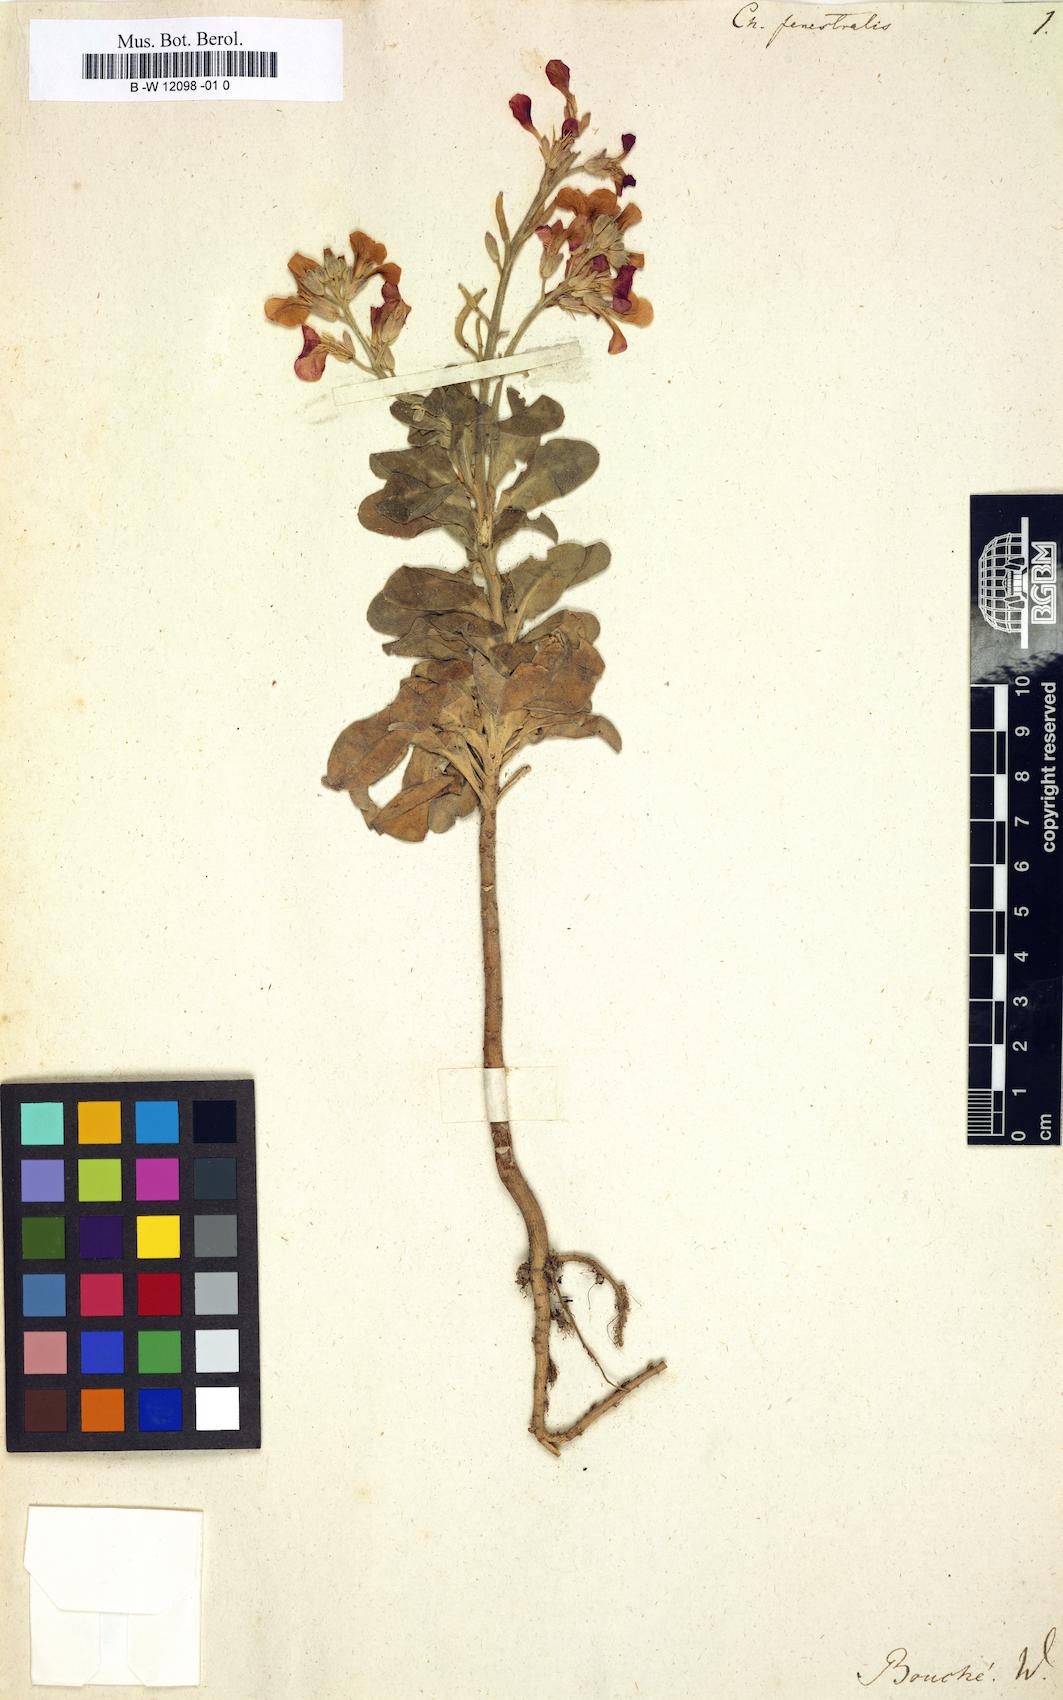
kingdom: Plantae
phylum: Tracheophyta
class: Magnoliopsida
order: Brassicales
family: Brassicaceae
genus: Matthiola
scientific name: Matthiola incana
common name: Hoary stock
